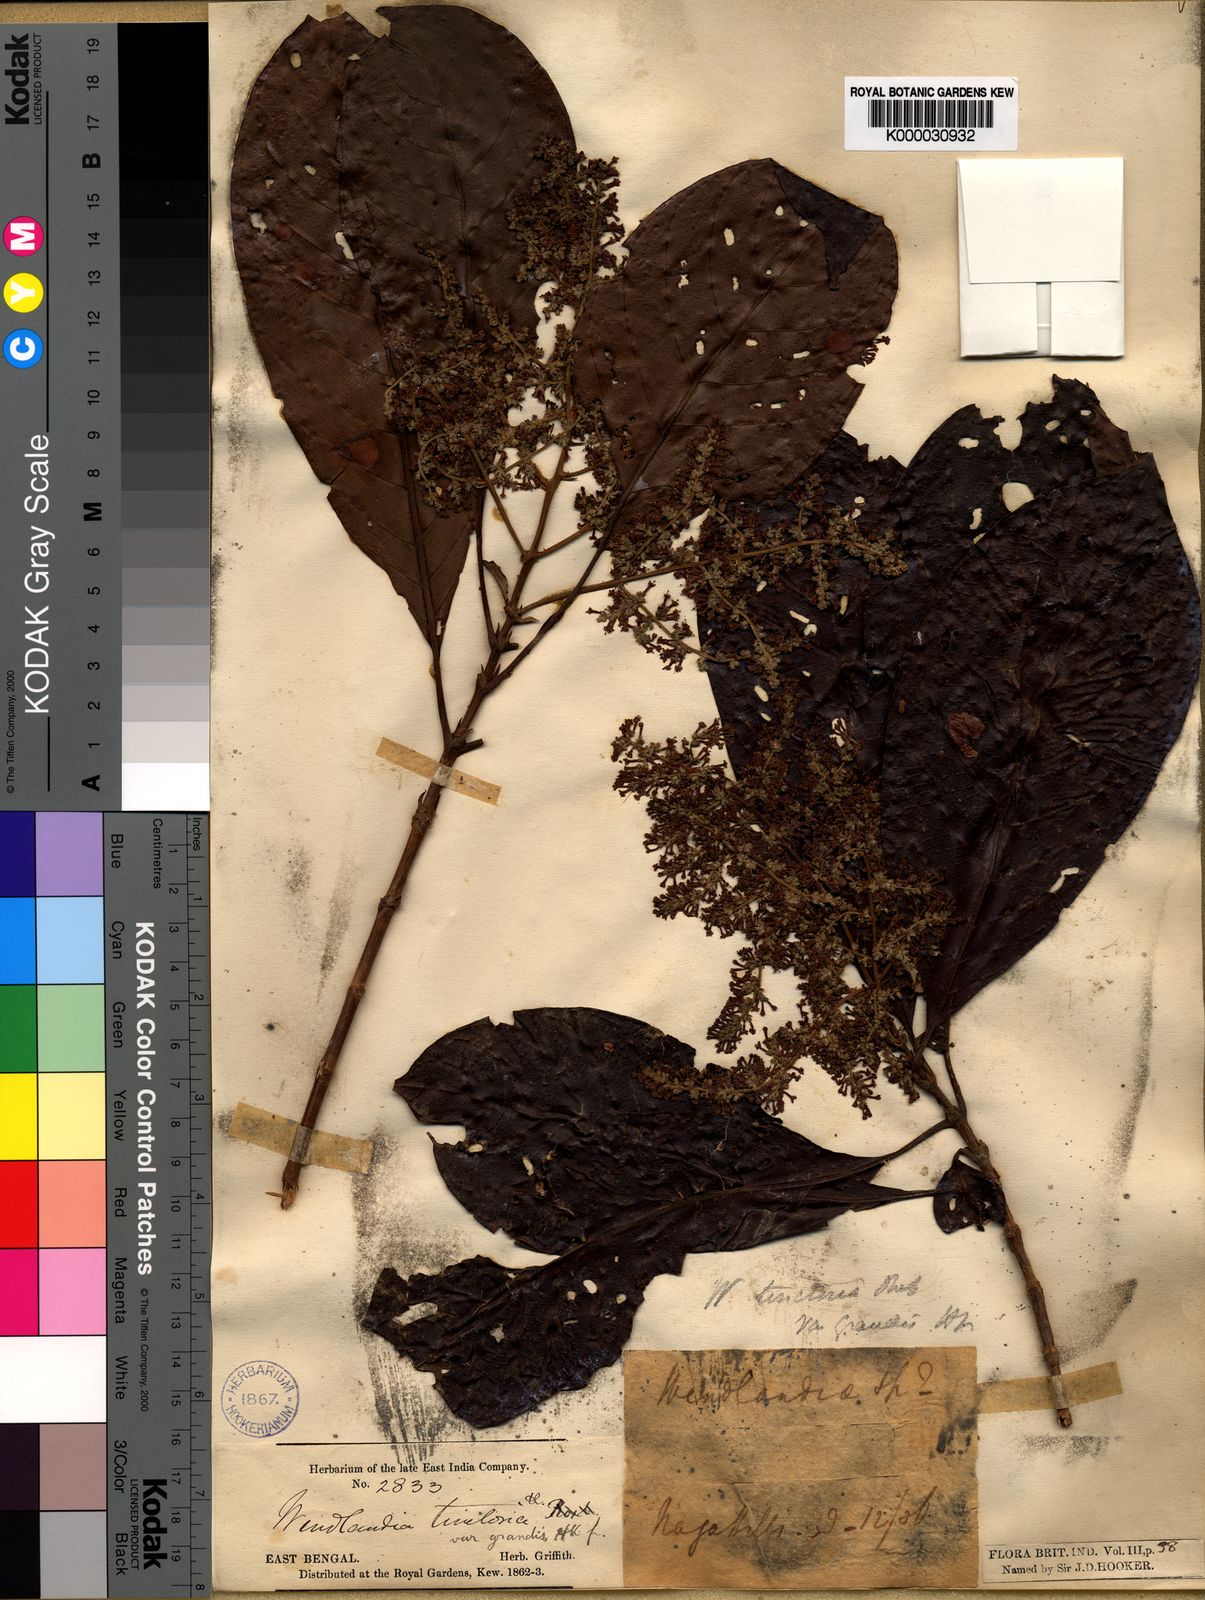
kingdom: Plantae
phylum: Tracheophyta
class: Magnoliopsida
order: Gentianales
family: Rubiaceae
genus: Wendlandia
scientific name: Wendlandia budleioides
